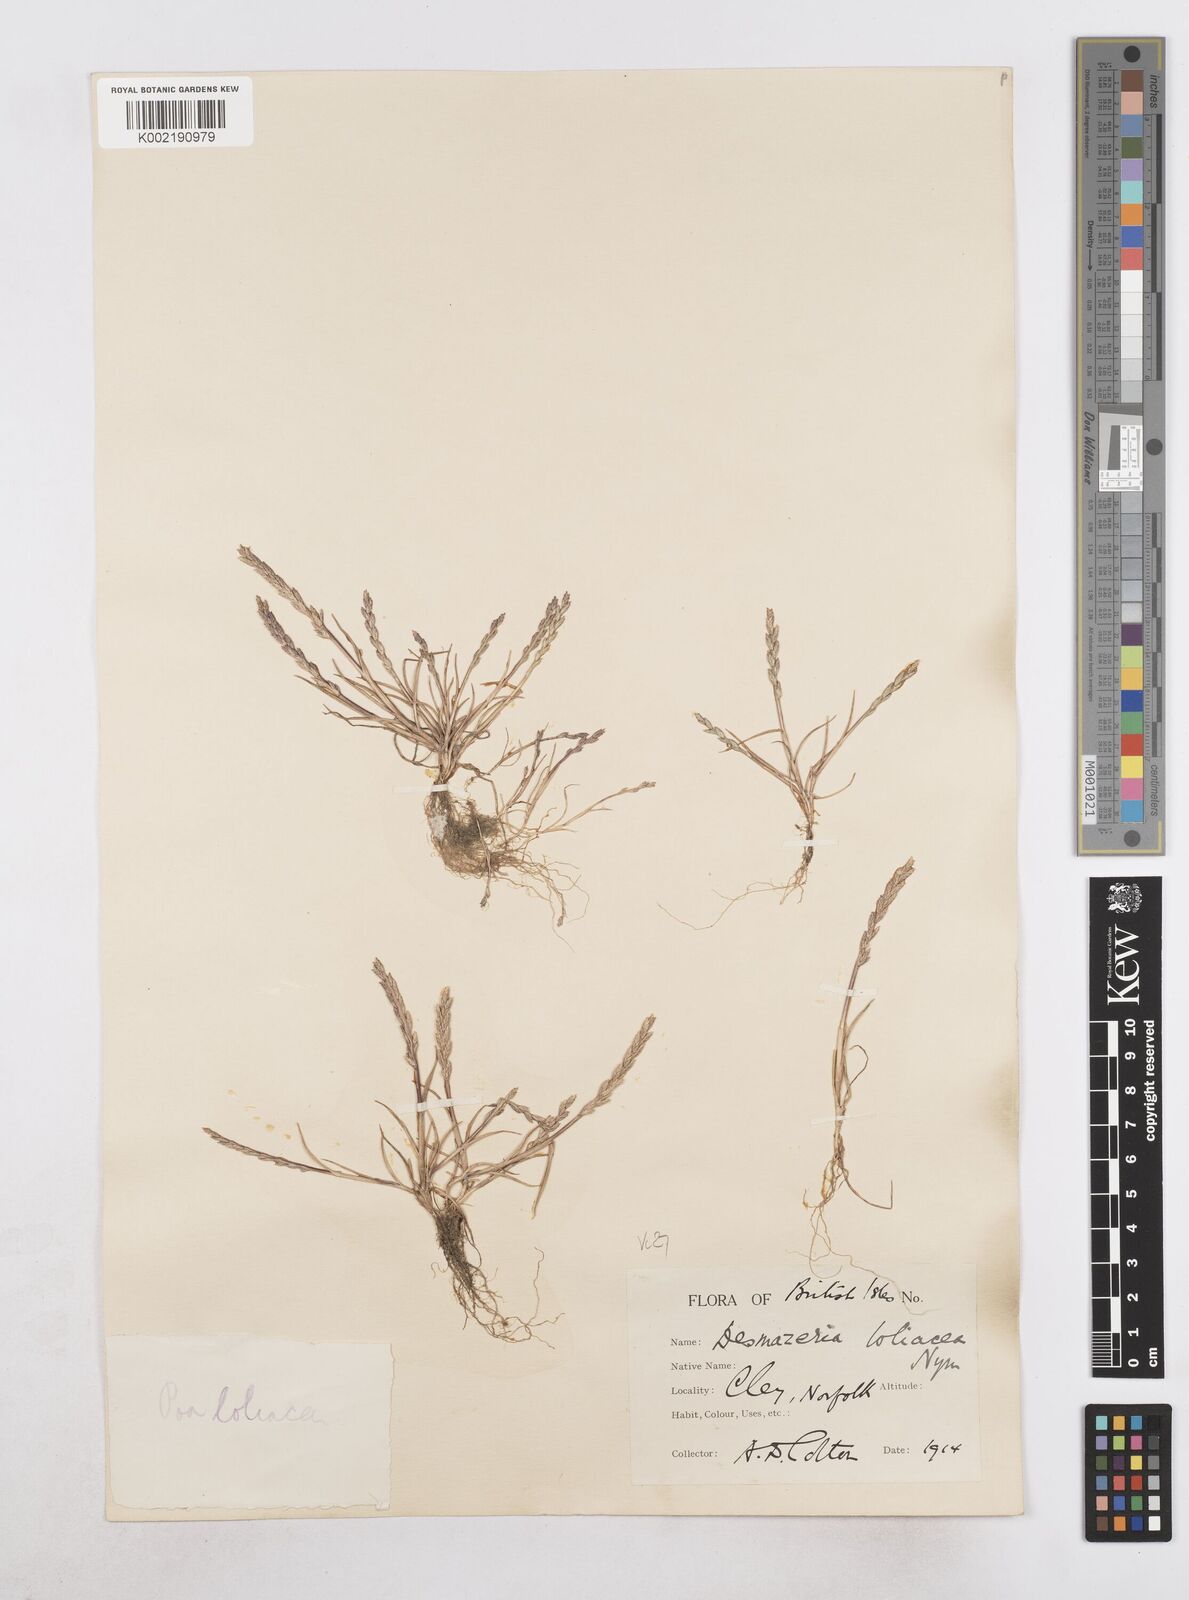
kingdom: Plantae
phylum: Tracheophyta
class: Liliopsida
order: Poales
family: Poaceae
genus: Catapodium
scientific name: Catapodium marinum
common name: Sea fern-grass
